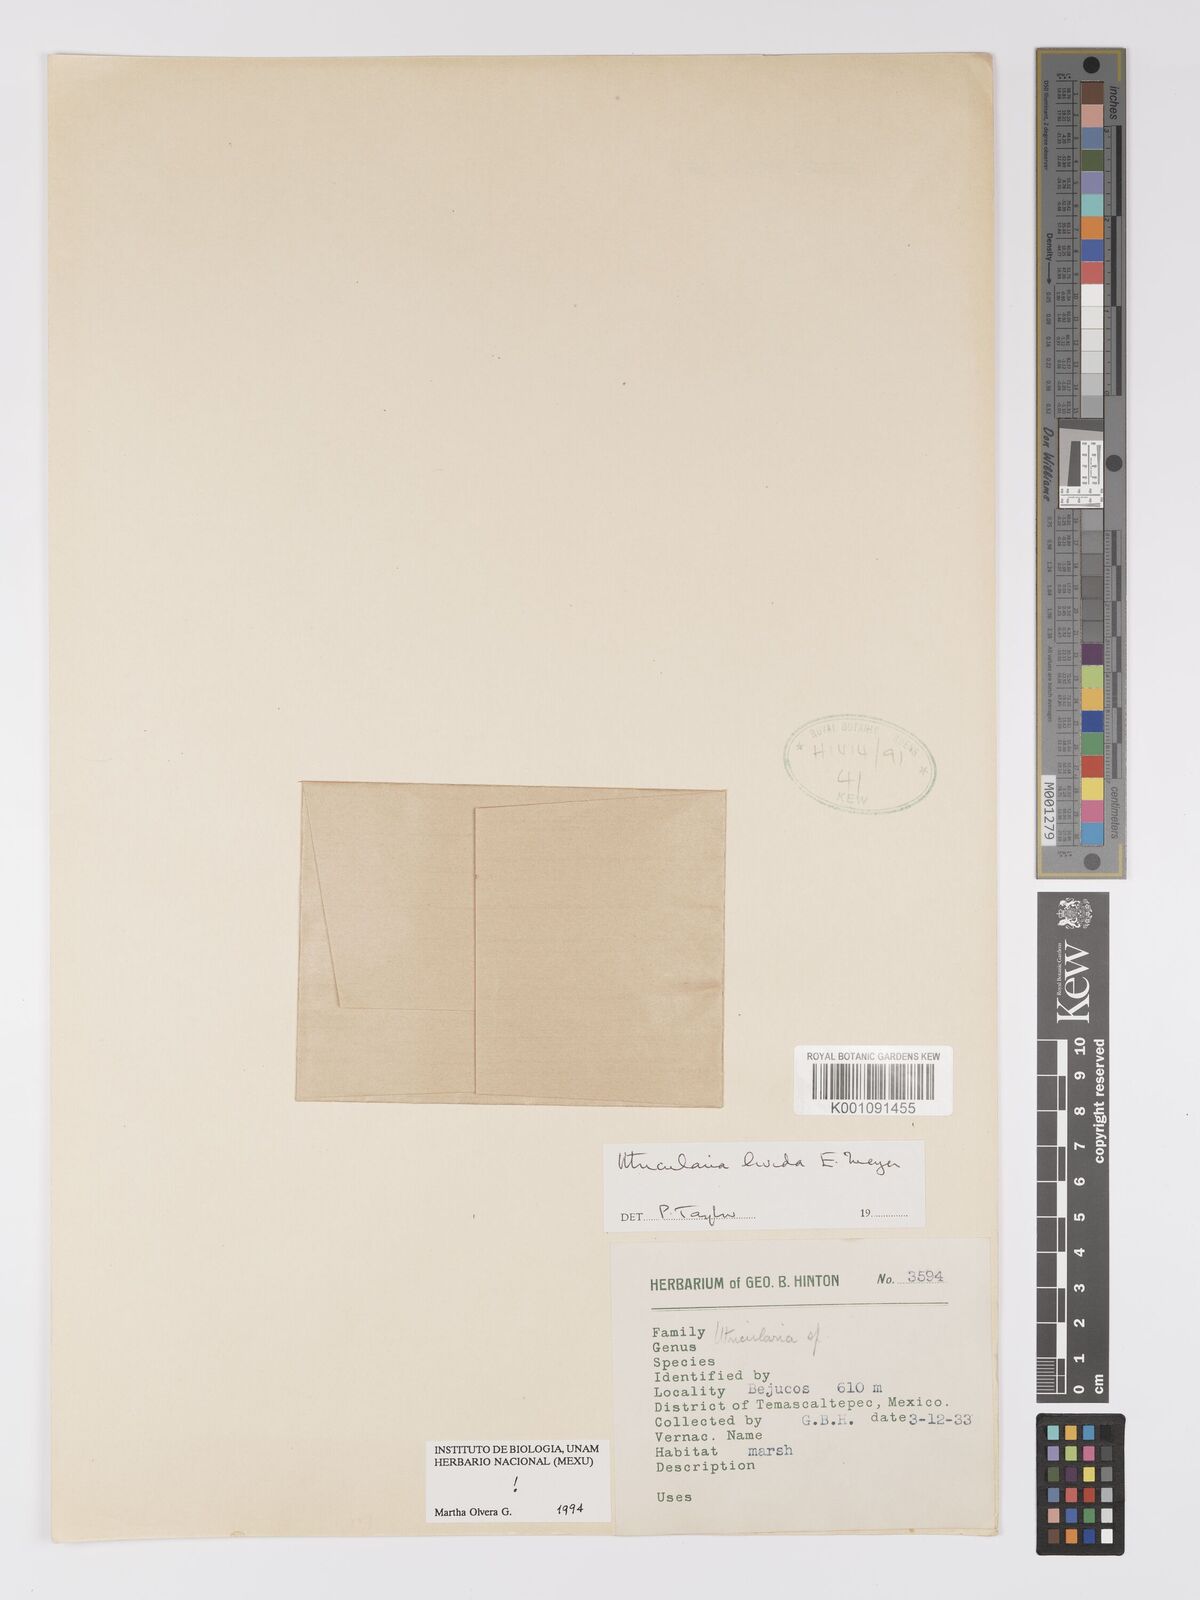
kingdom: Plantae
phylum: Tracheophyta
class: Magnoliopsida
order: Lamiales
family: Lentibulariaceae
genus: Utricularia
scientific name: Utricularia livida
